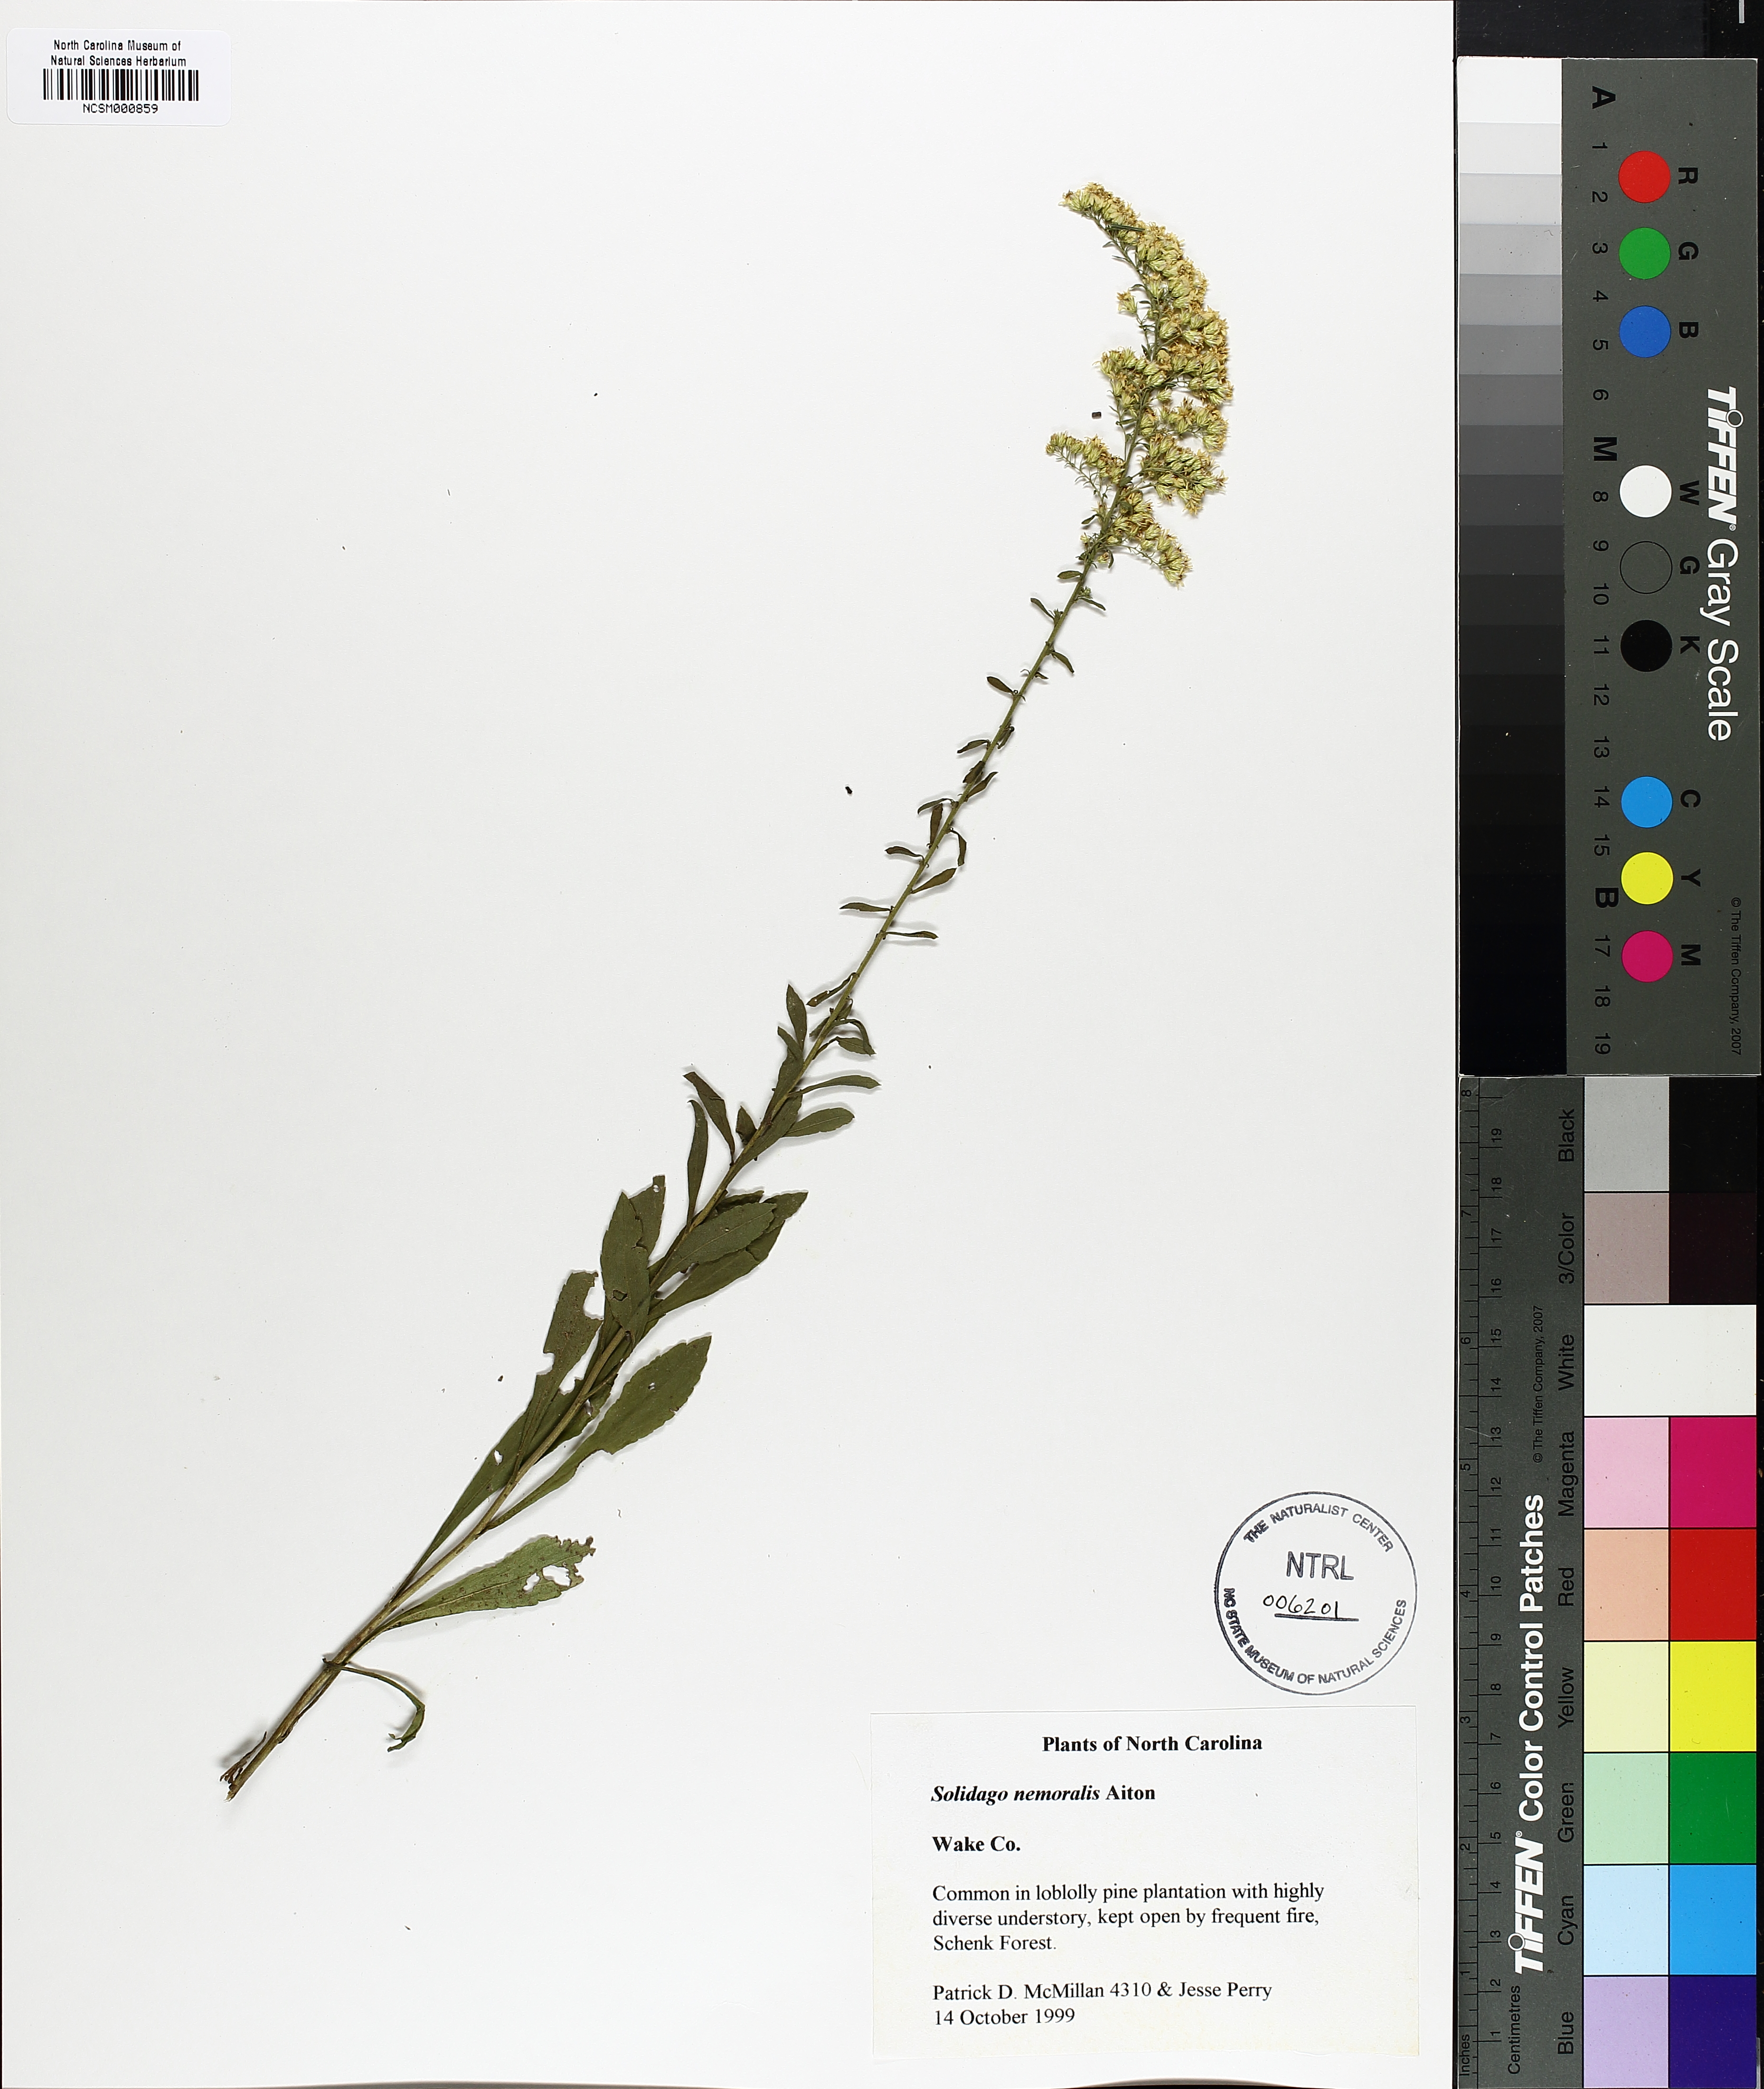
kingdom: Plantae
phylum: Tracheophyta
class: Magnoliopsida
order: Asterales
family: Asteraceae
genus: Solidago
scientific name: Solidago nemoralis
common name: Grey goldenrod
